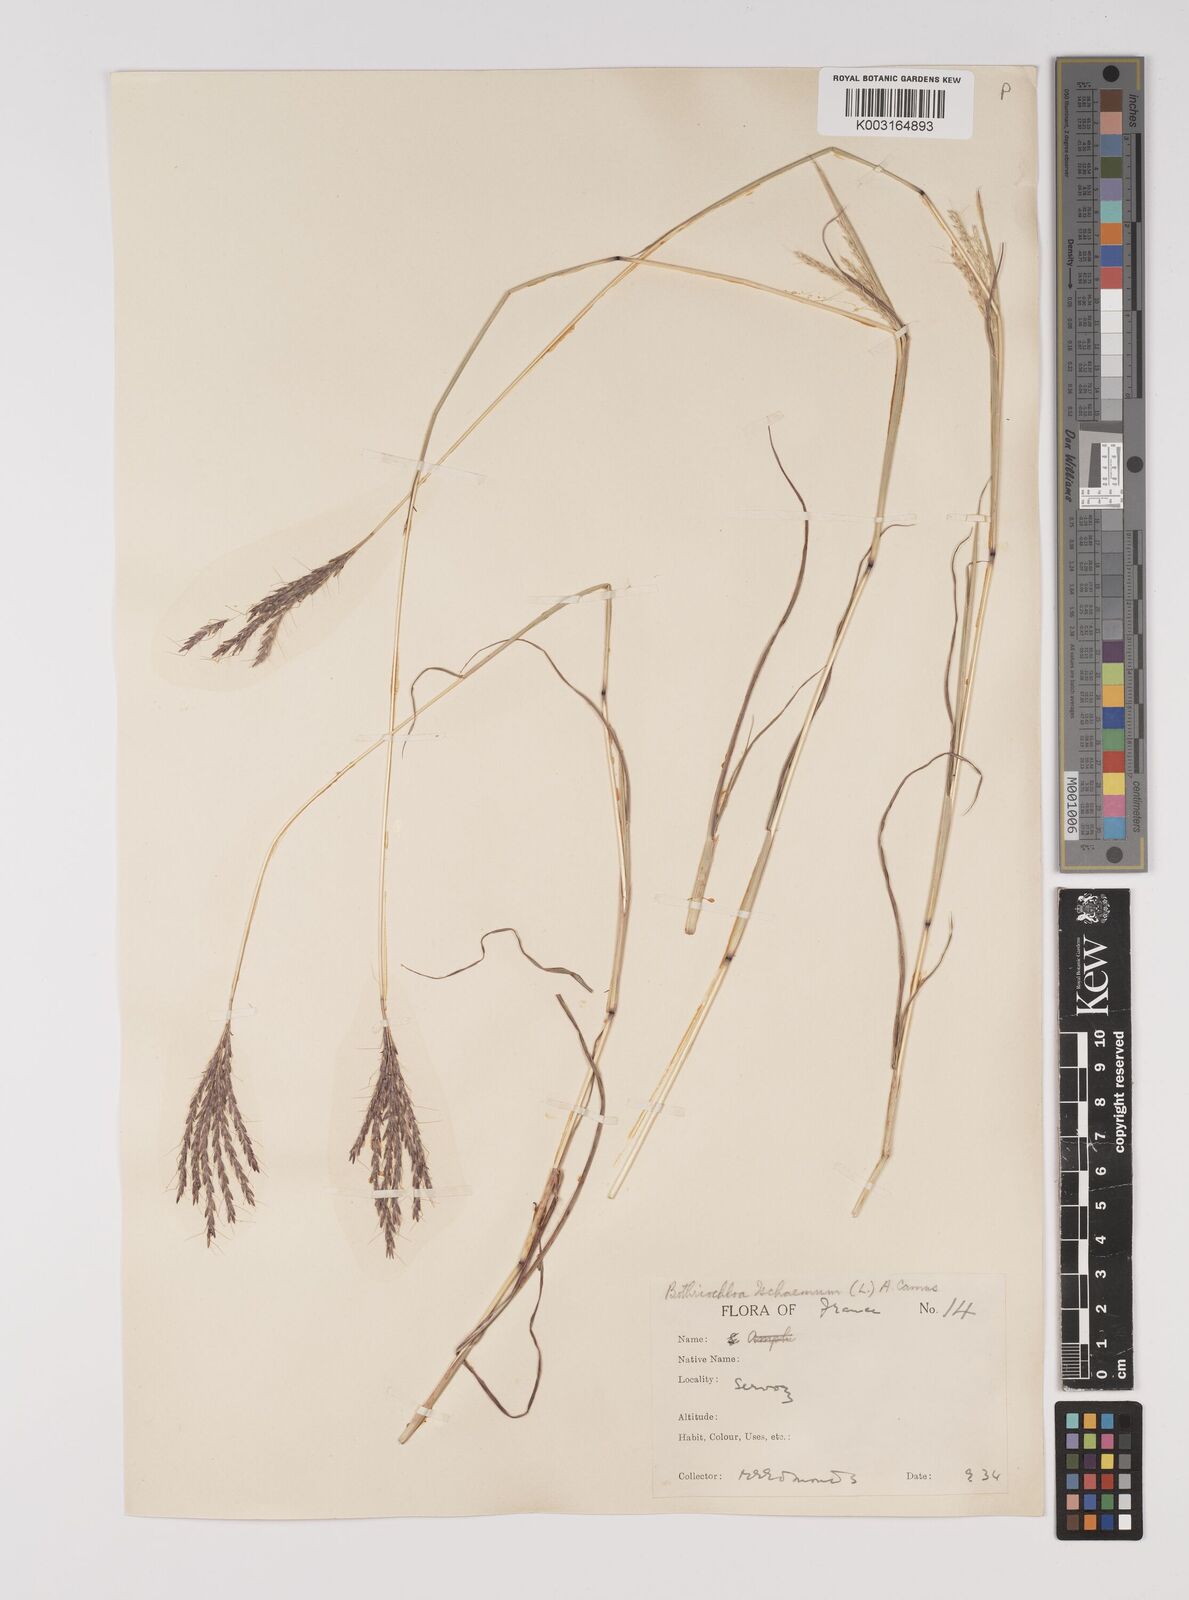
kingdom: Plantae
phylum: Tracheophyta
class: Liliopsida
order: Poales
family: Poaceae
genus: Bothriochloa
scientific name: Bothriochloa ischaemum
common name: Yellow bluestem
